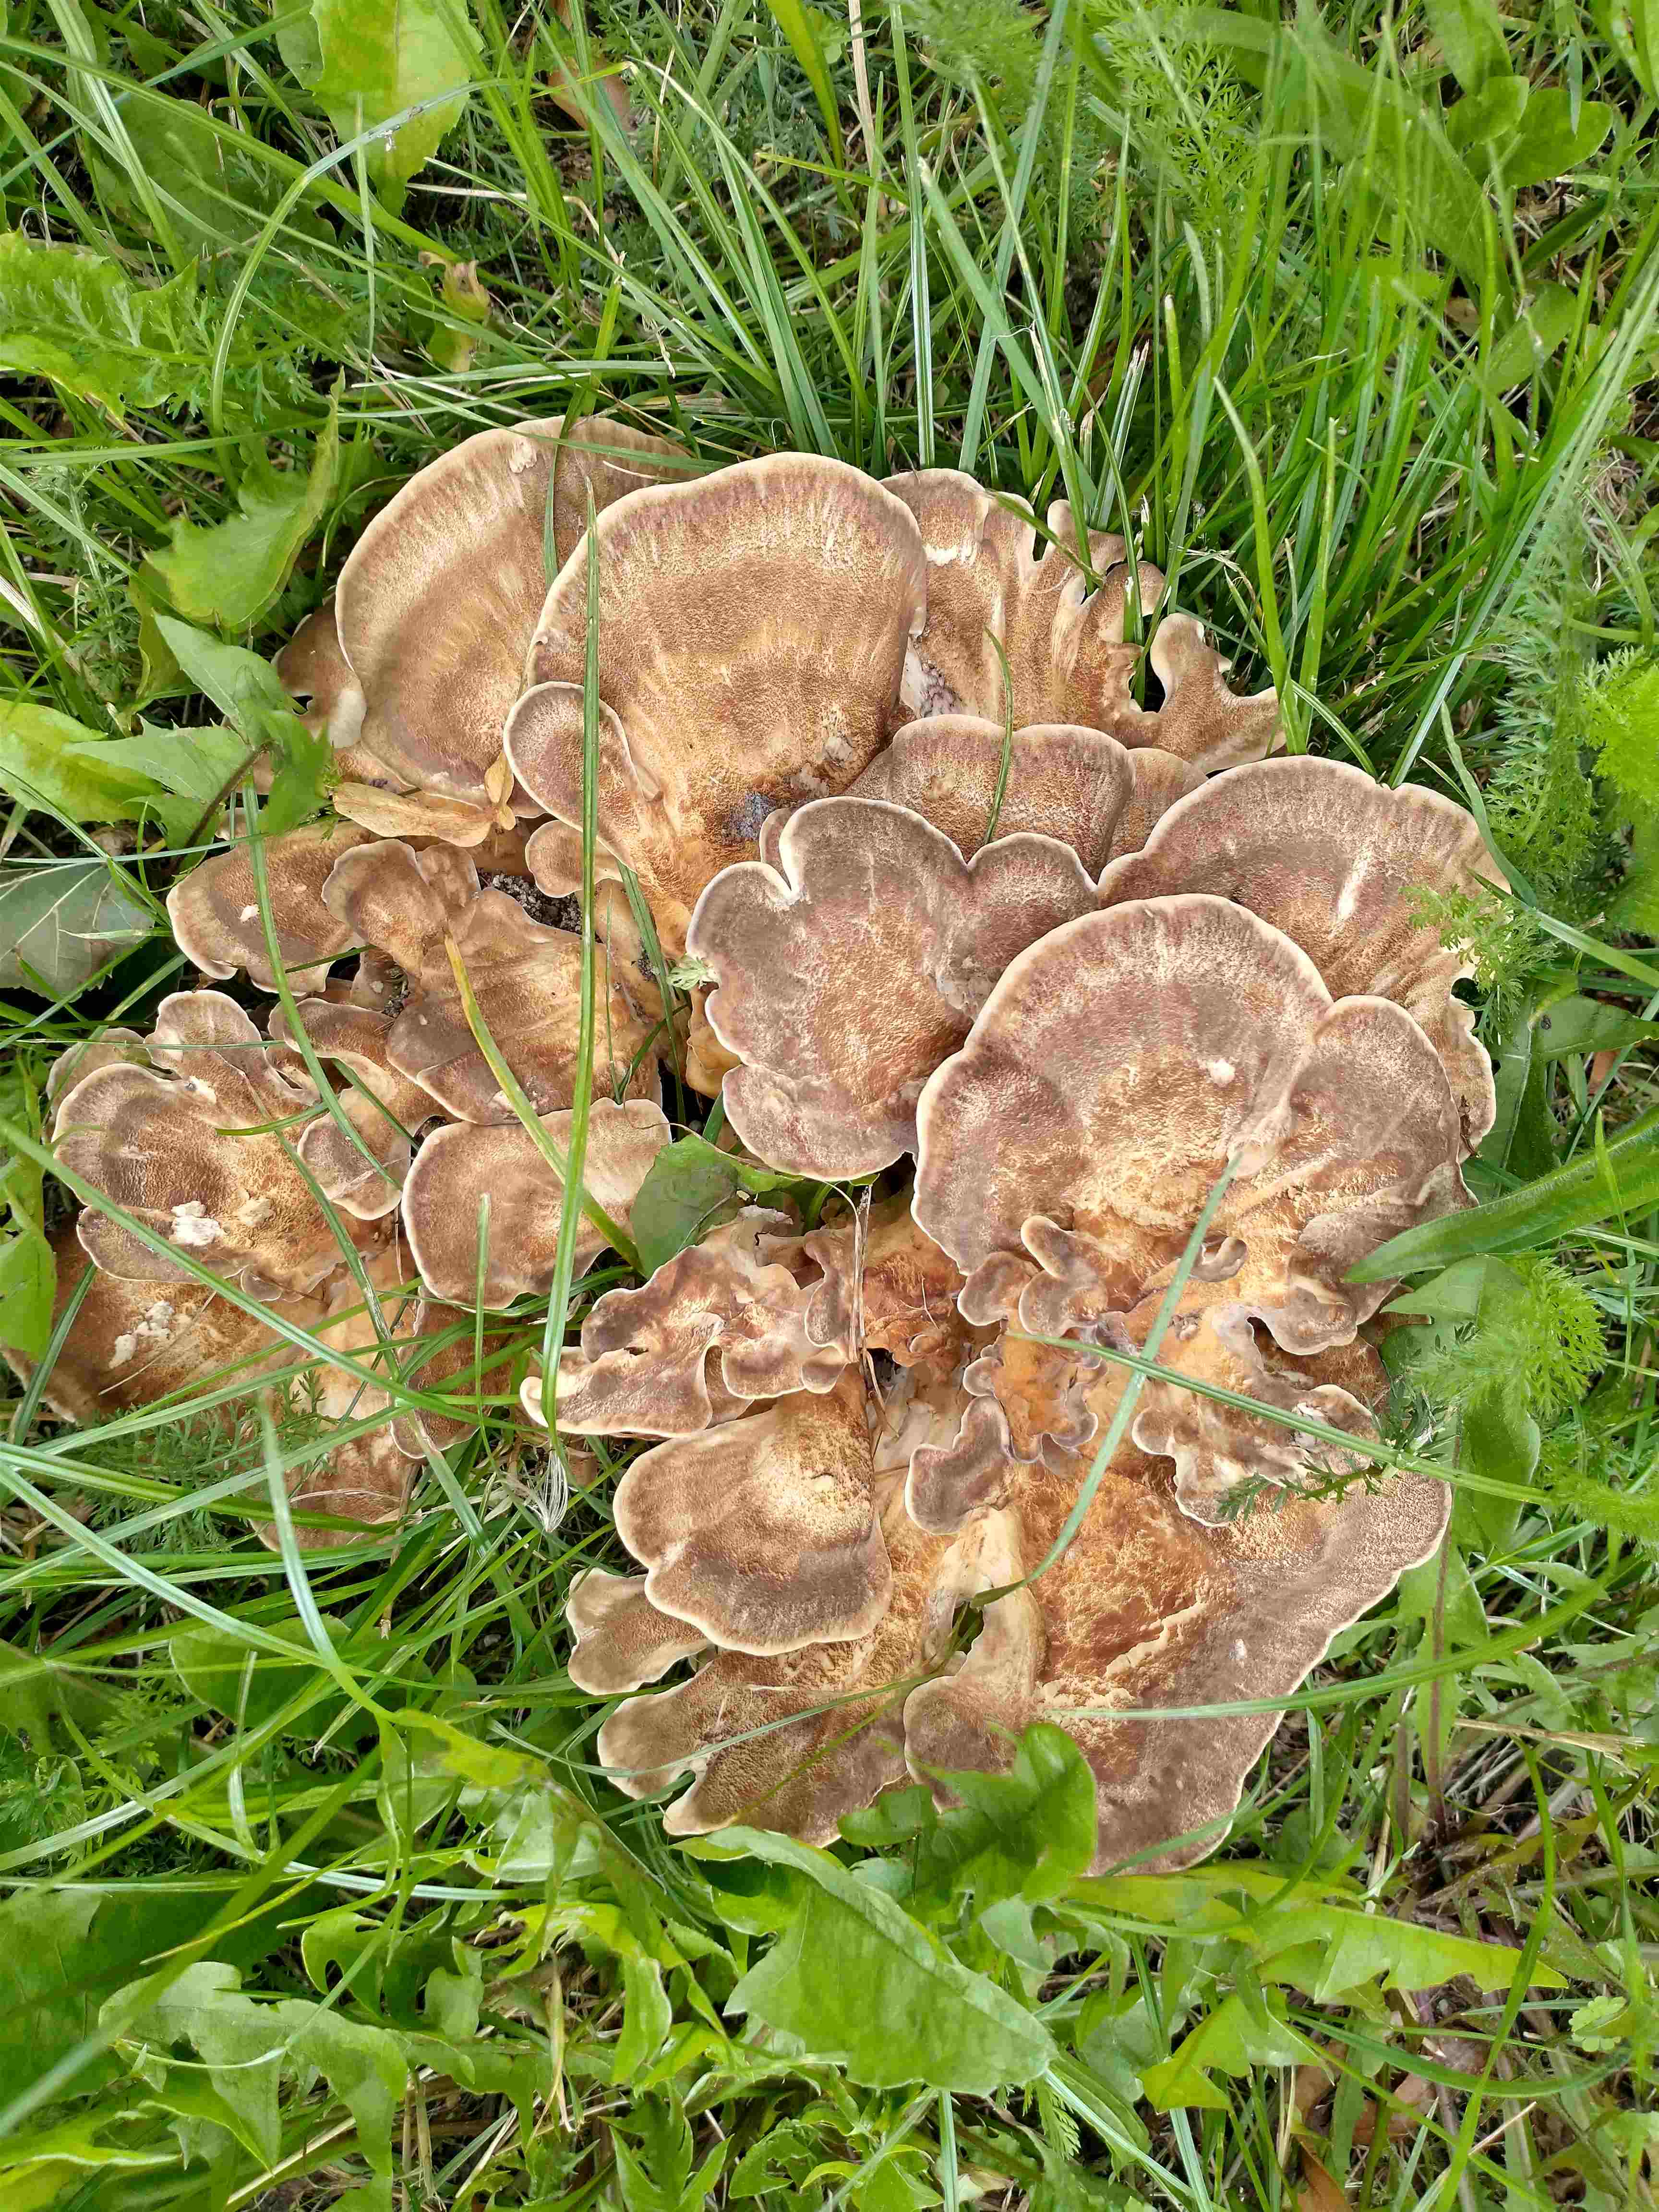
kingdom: Fungi
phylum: Basidiomycota
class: Agaricomycetes
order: Polyporales
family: Meripilaceae
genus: Meripilus
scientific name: Meripilus giganteus
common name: kæmpeporesvamp
